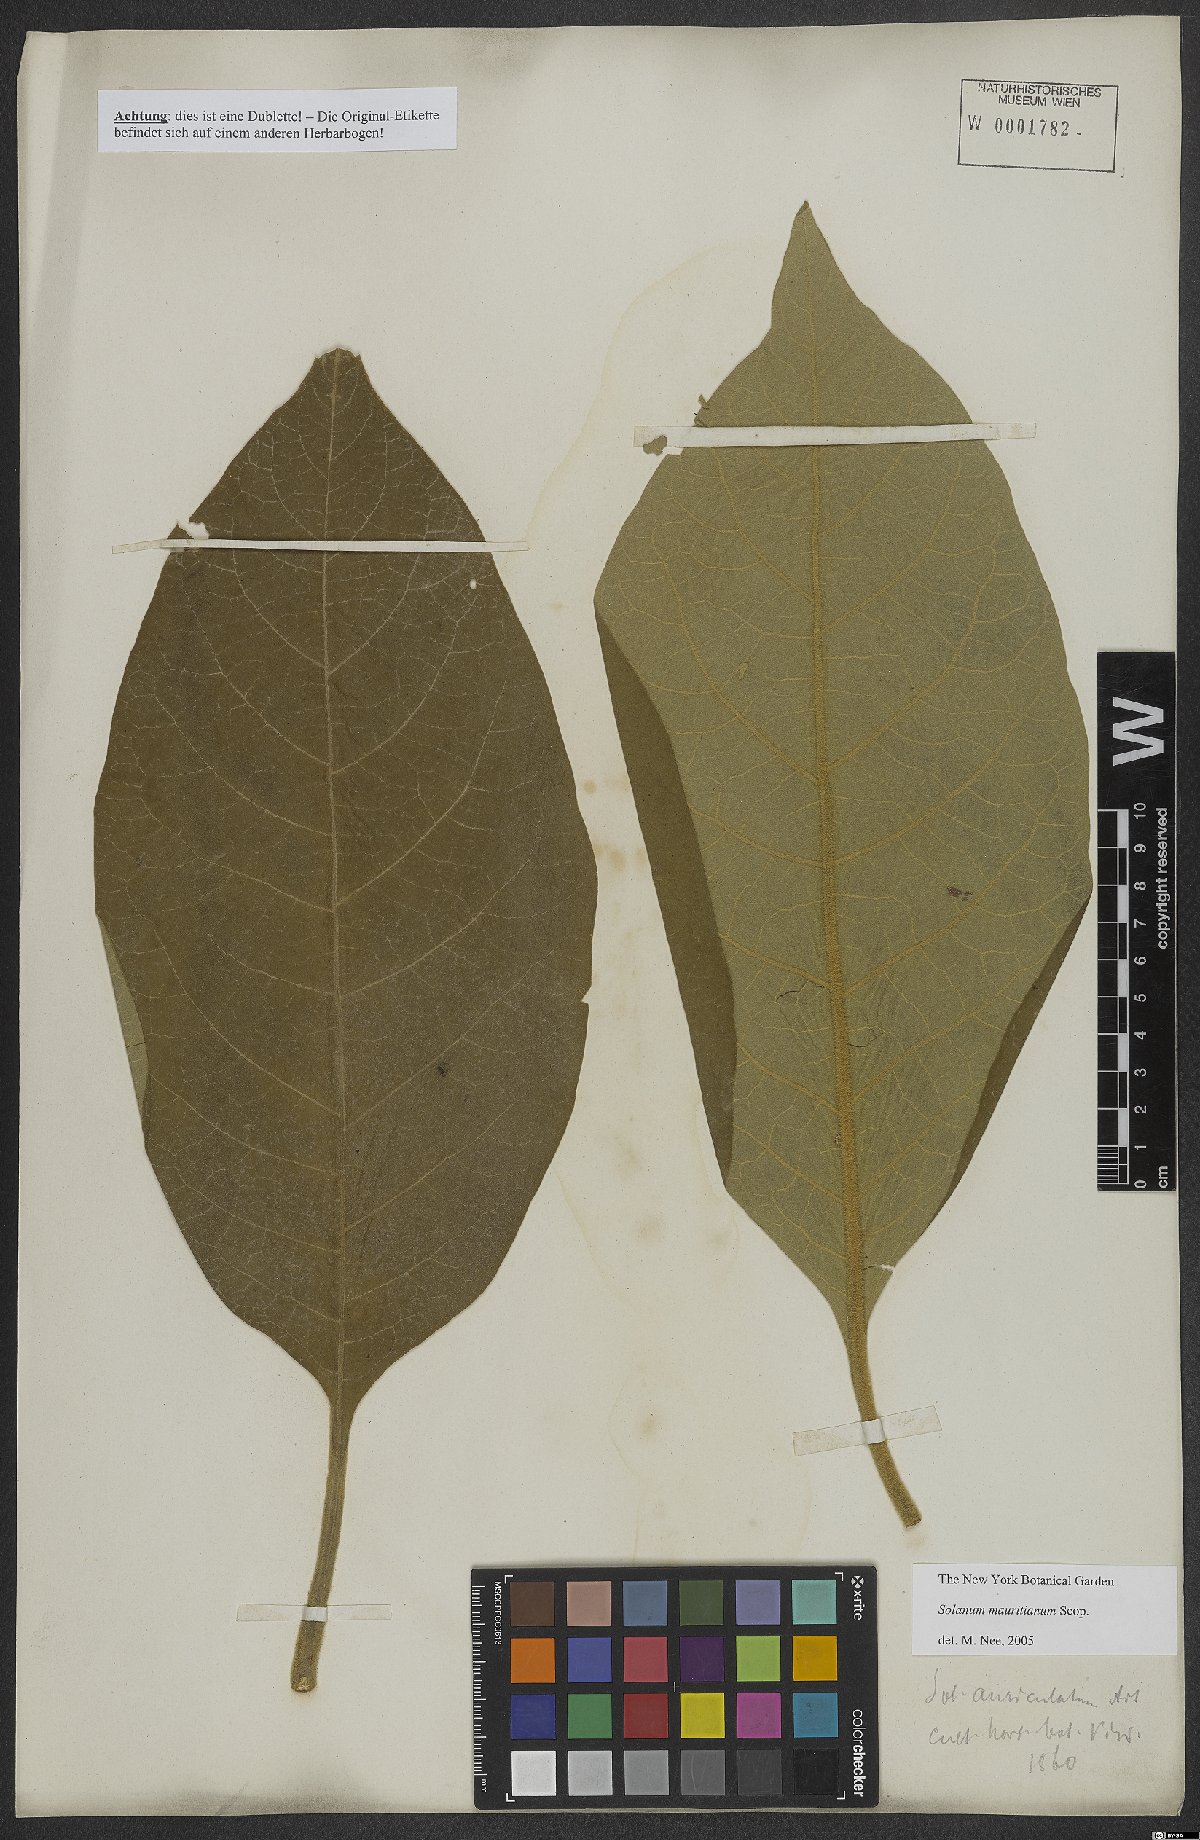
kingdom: Plantae
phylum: Tracheophyta
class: Magnoliopsida
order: Solanales
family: Solanaceae
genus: Solanum
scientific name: Solanum mauritianum
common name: Earleaf nightshade
